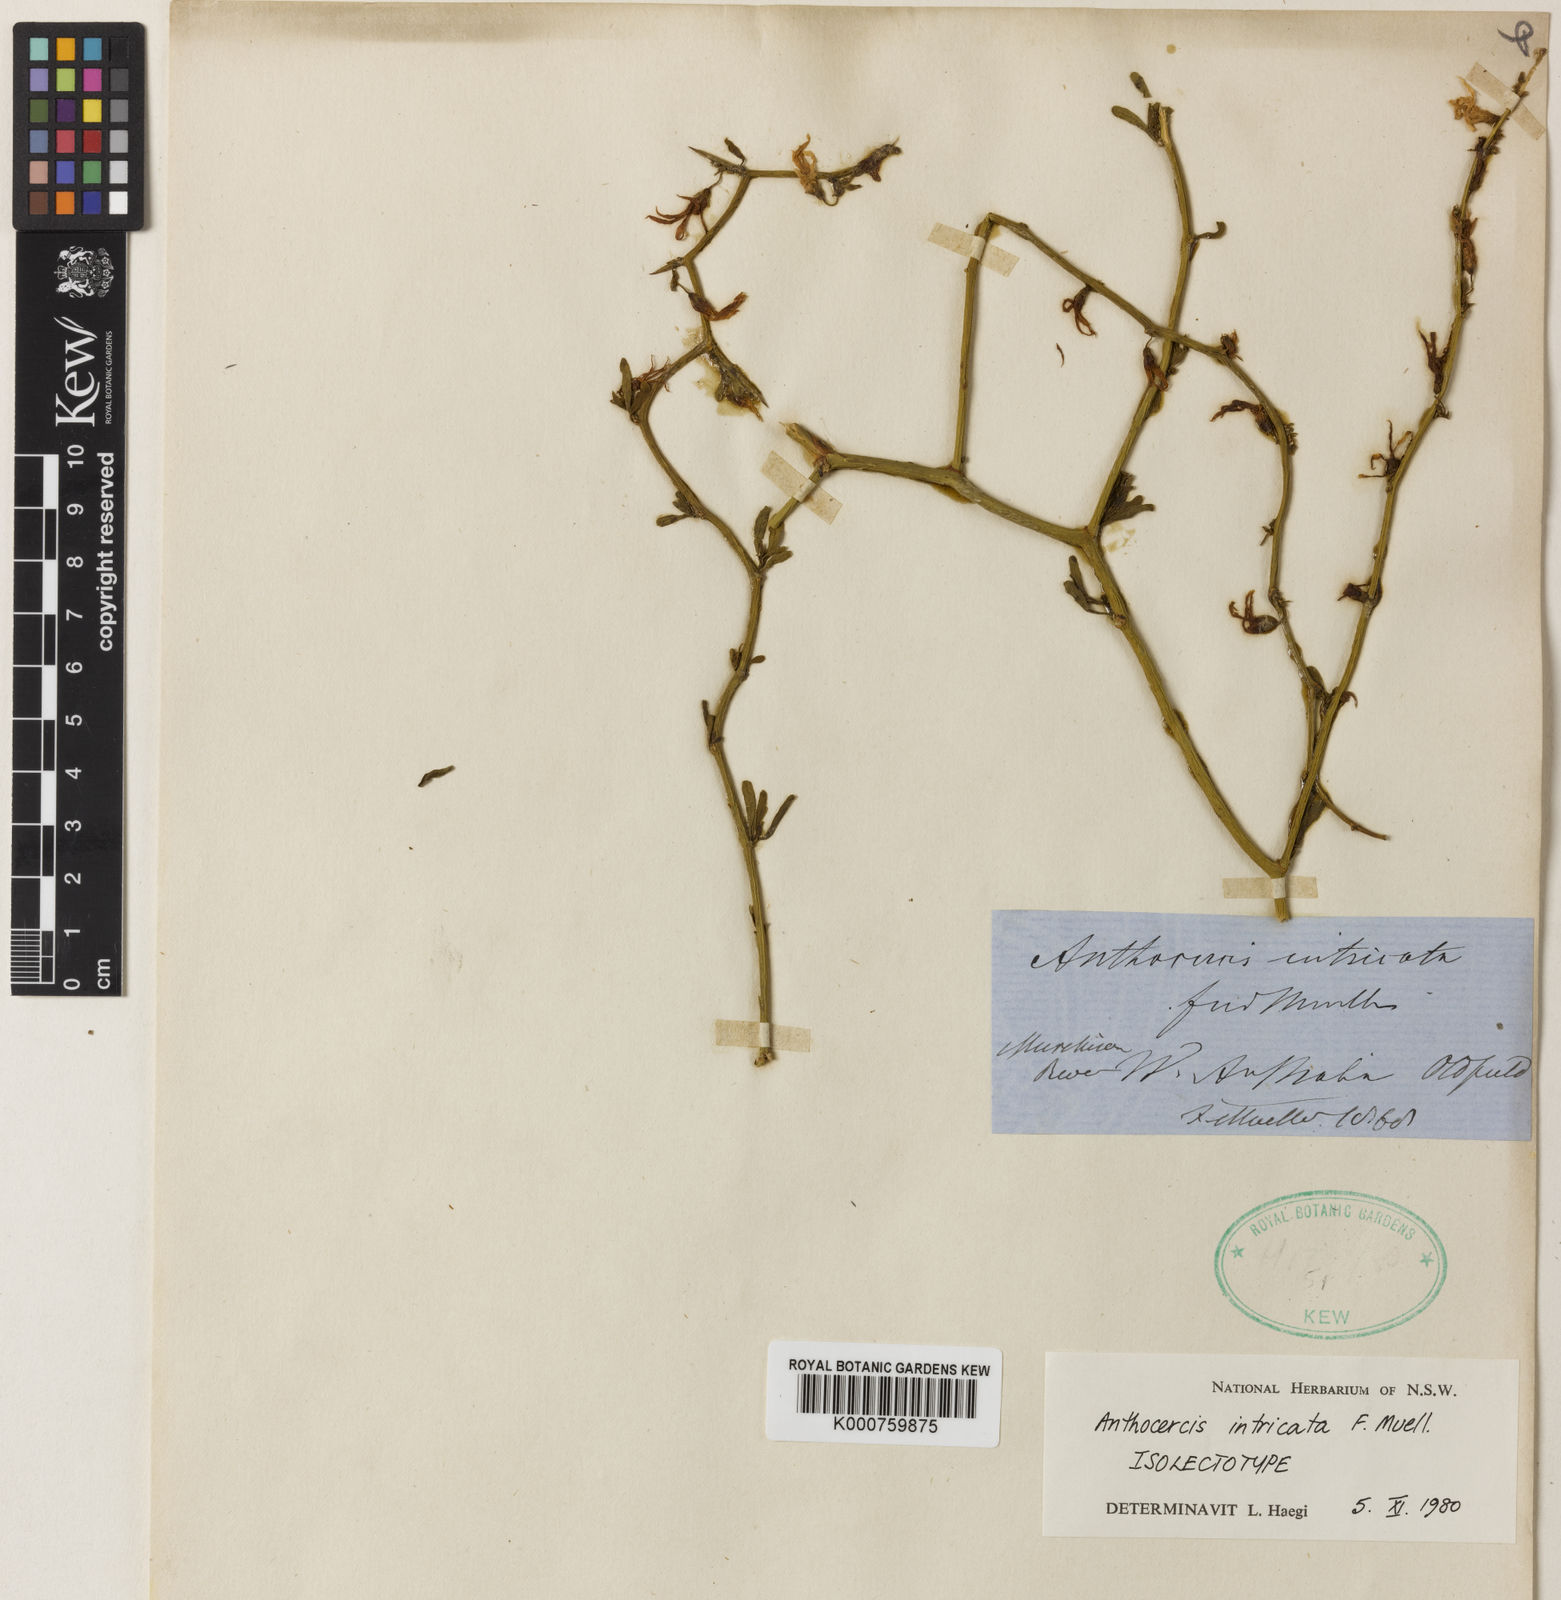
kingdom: Plantae
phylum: Tracheophyta
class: Magnoliopsida
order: Solanales
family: Solanaceae
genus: Anthocercis
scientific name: Anthocercis intricata
